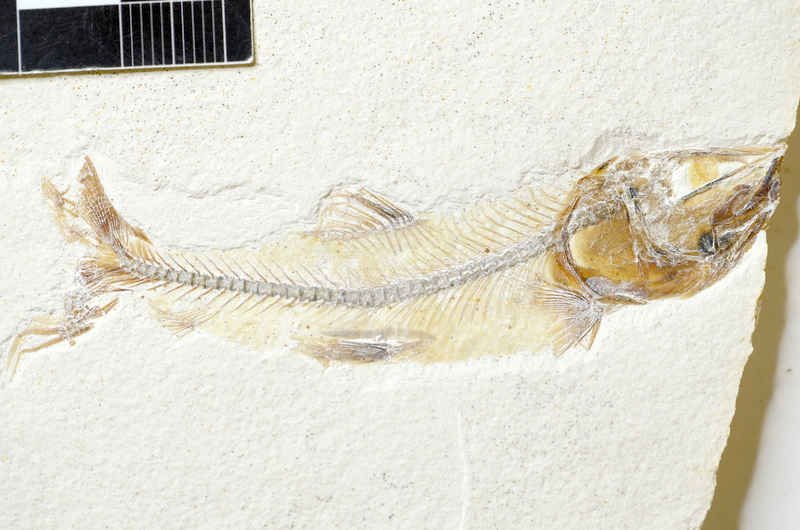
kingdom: Animalia
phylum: Chordata
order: Salmoniformes
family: Orthogonikleithridae
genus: Orthogonikleithrus
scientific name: Orthogonikleithrus
